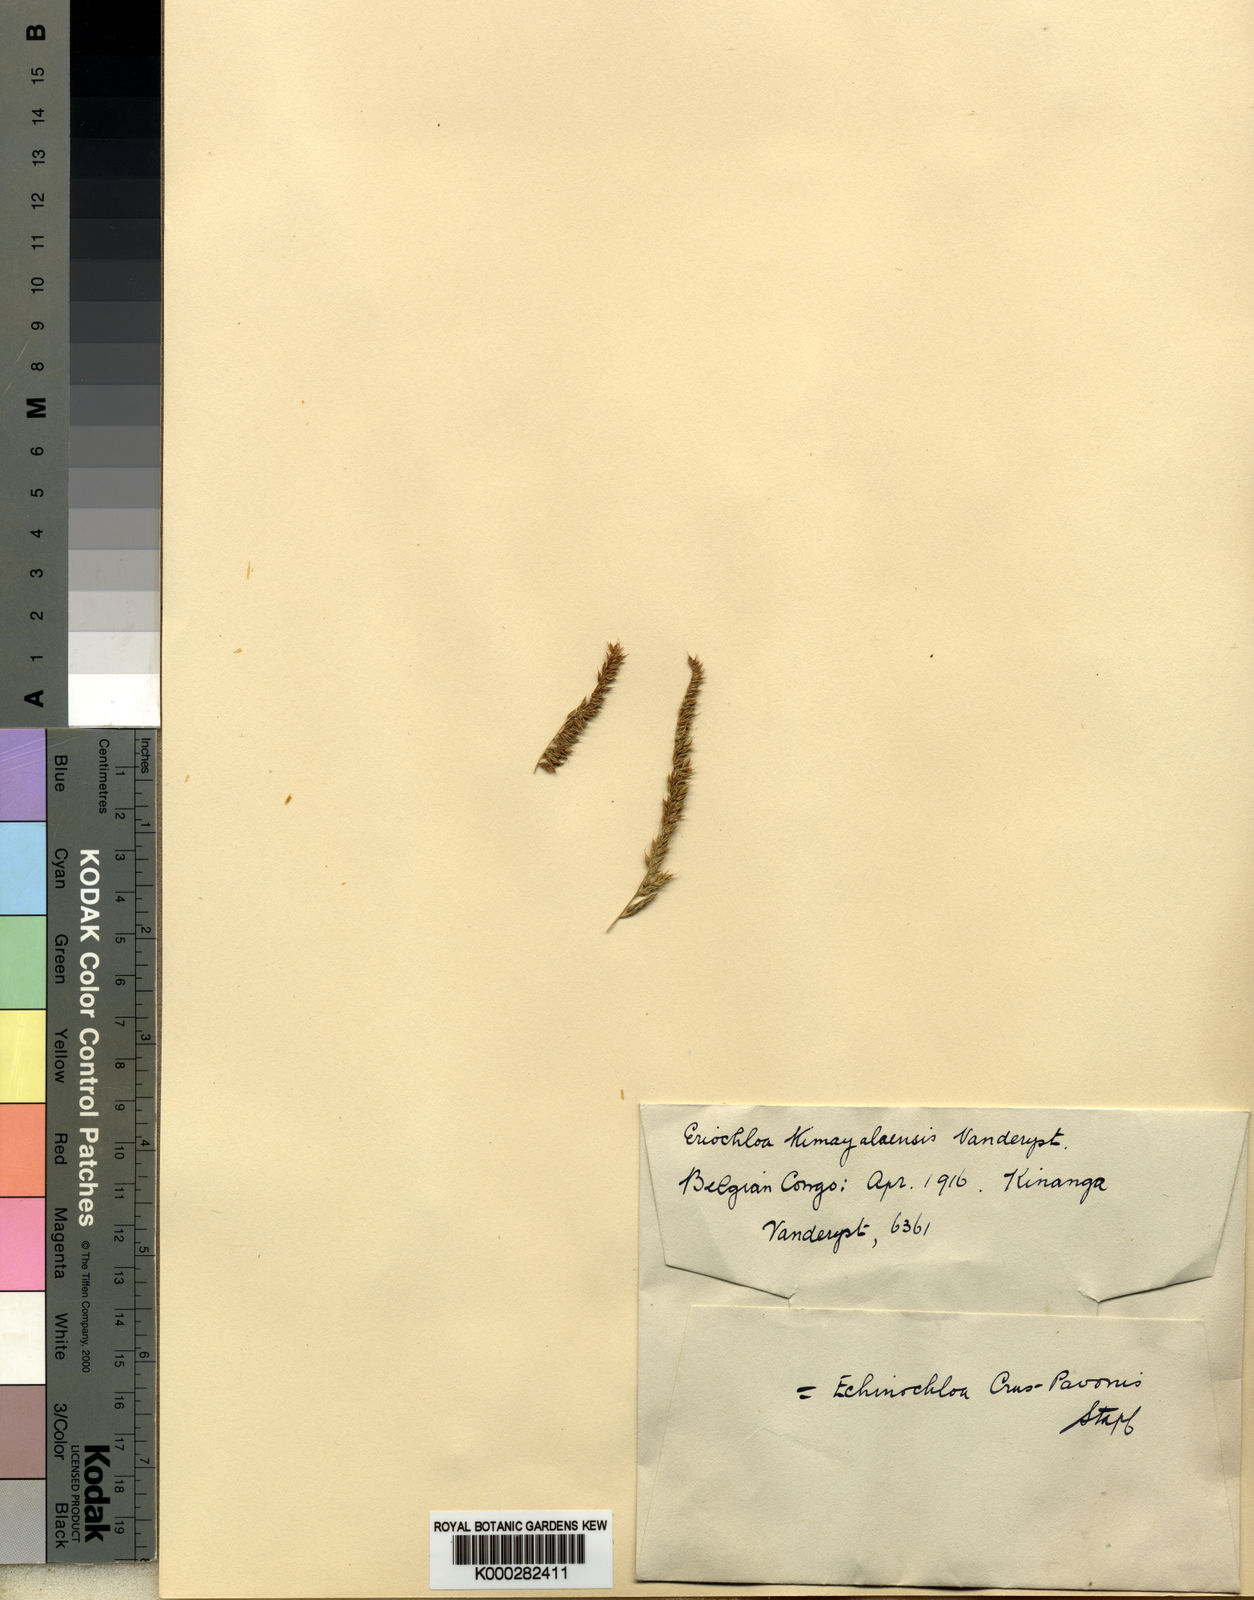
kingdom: Plantae
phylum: Tracheophyta
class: Liliopsida
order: Poales
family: Poaceae
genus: Echinochloa
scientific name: Echinochloa crus-pavonis
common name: Gulf cockspur grass
